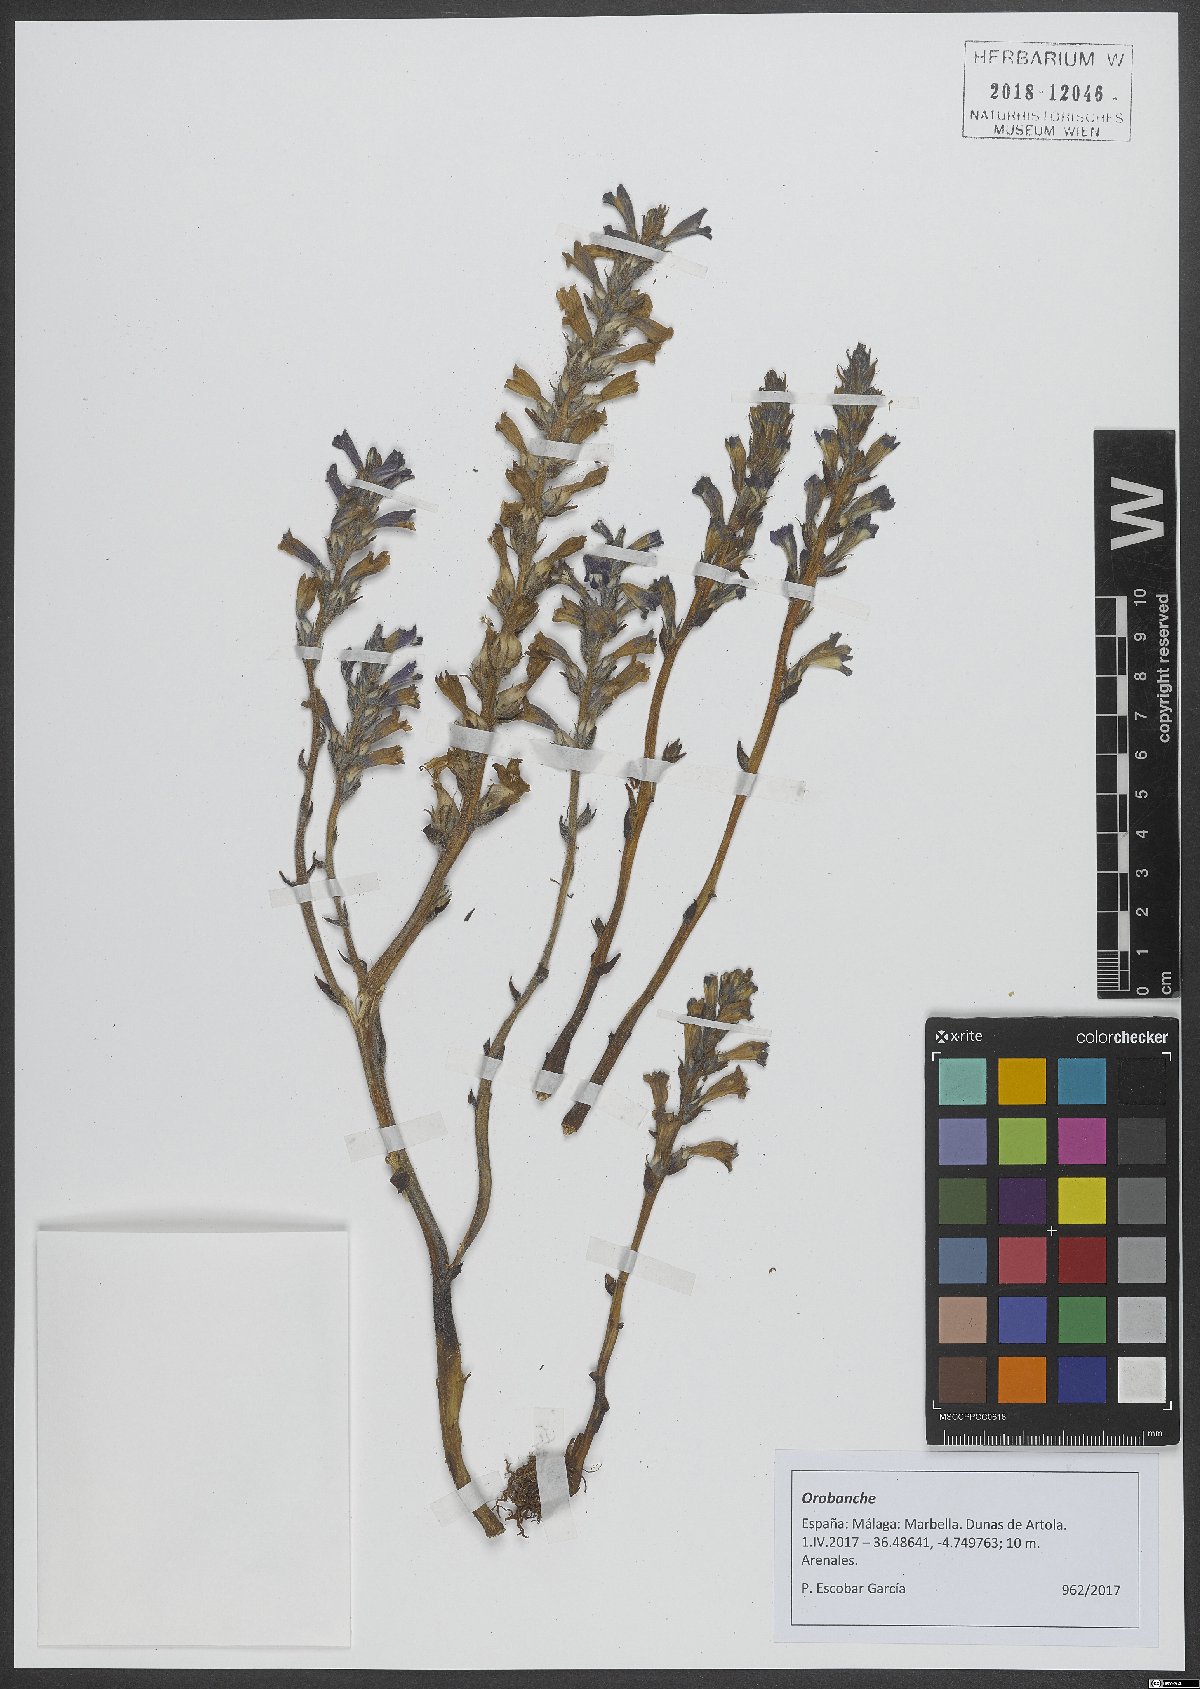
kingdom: Plantae
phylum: Tracheophyta
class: Magnoliopsida
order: Lamiales
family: Orobanchaceae
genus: Orobanche
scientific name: Orobanche
